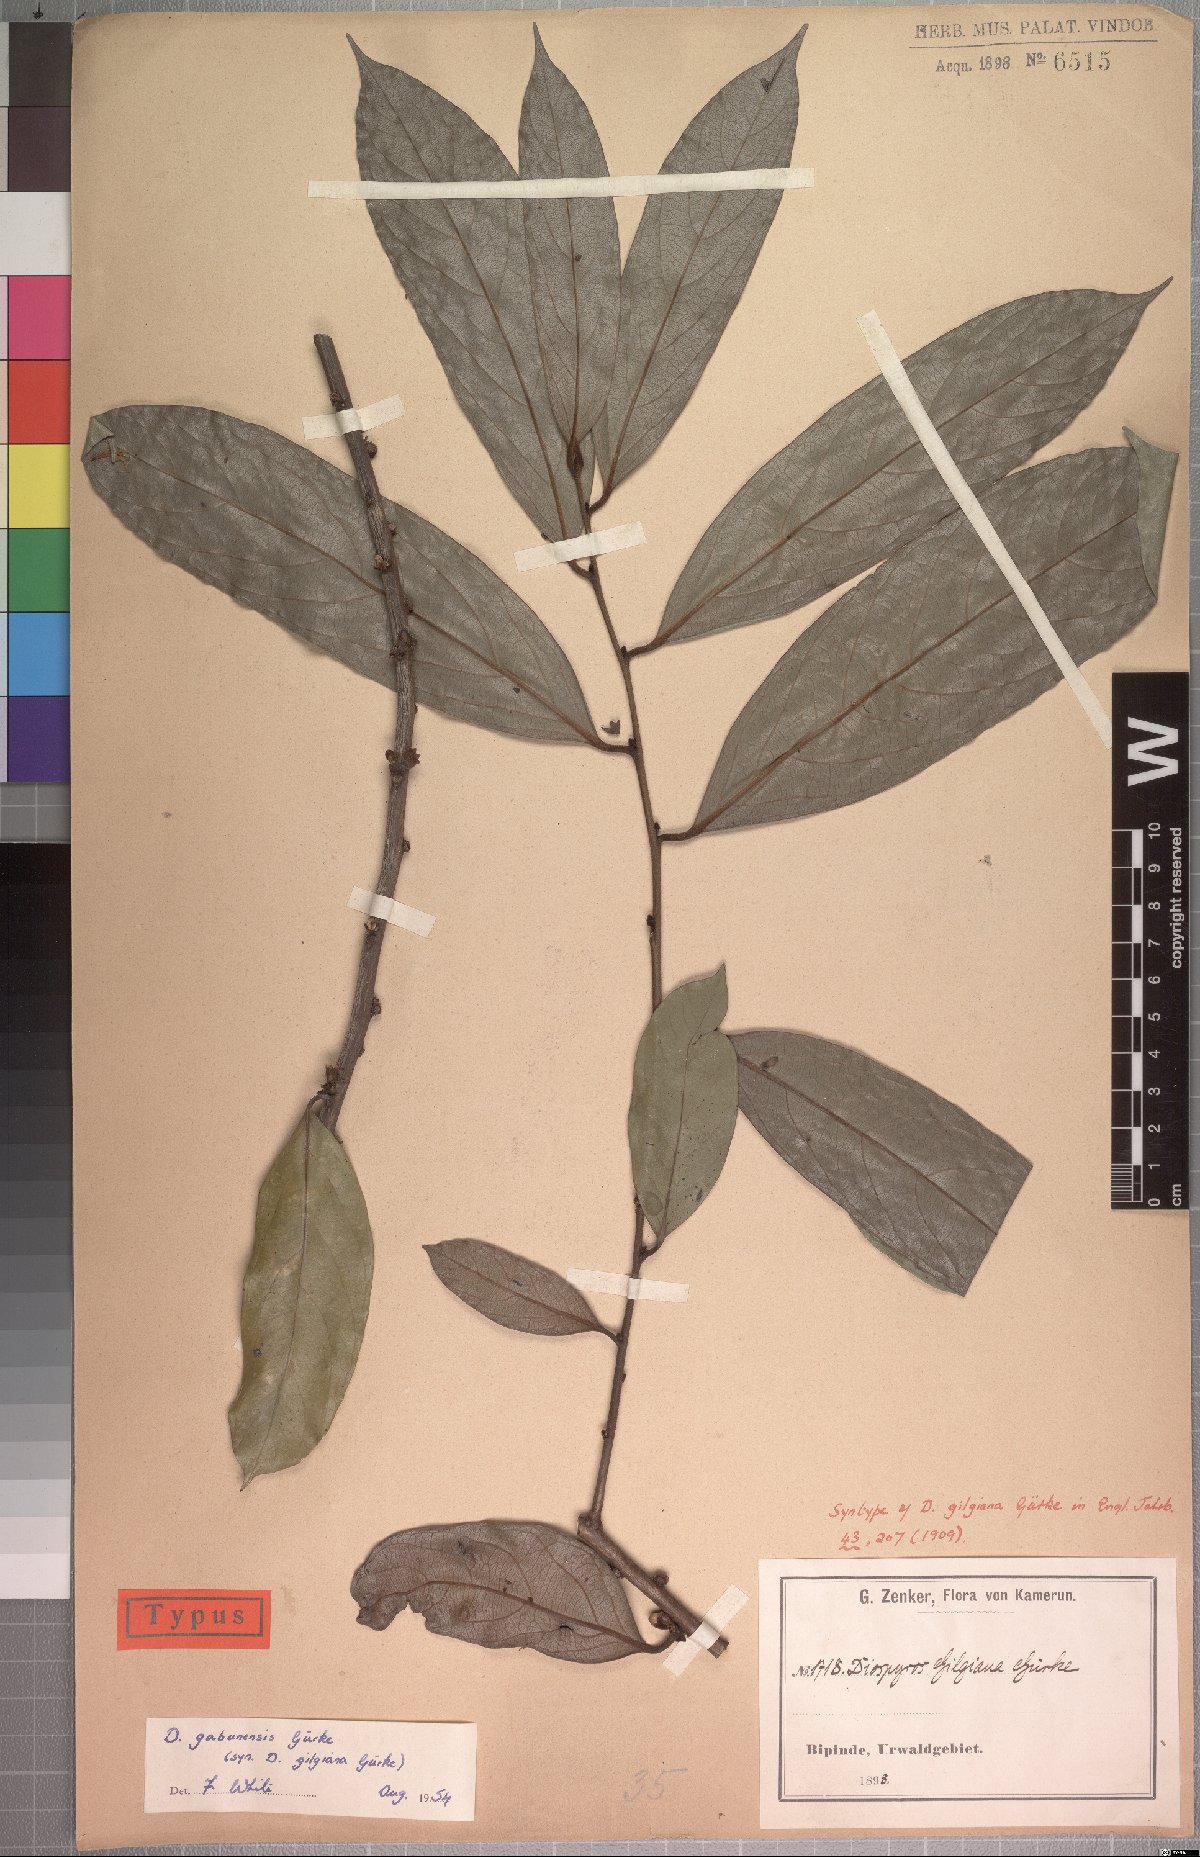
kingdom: Plantae
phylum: Tracheophyta
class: Magnoliopsida
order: Ericales
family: Ebenaceae
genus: Diospyros
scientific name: Diospyros gabunensis
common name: Flint bark tree
